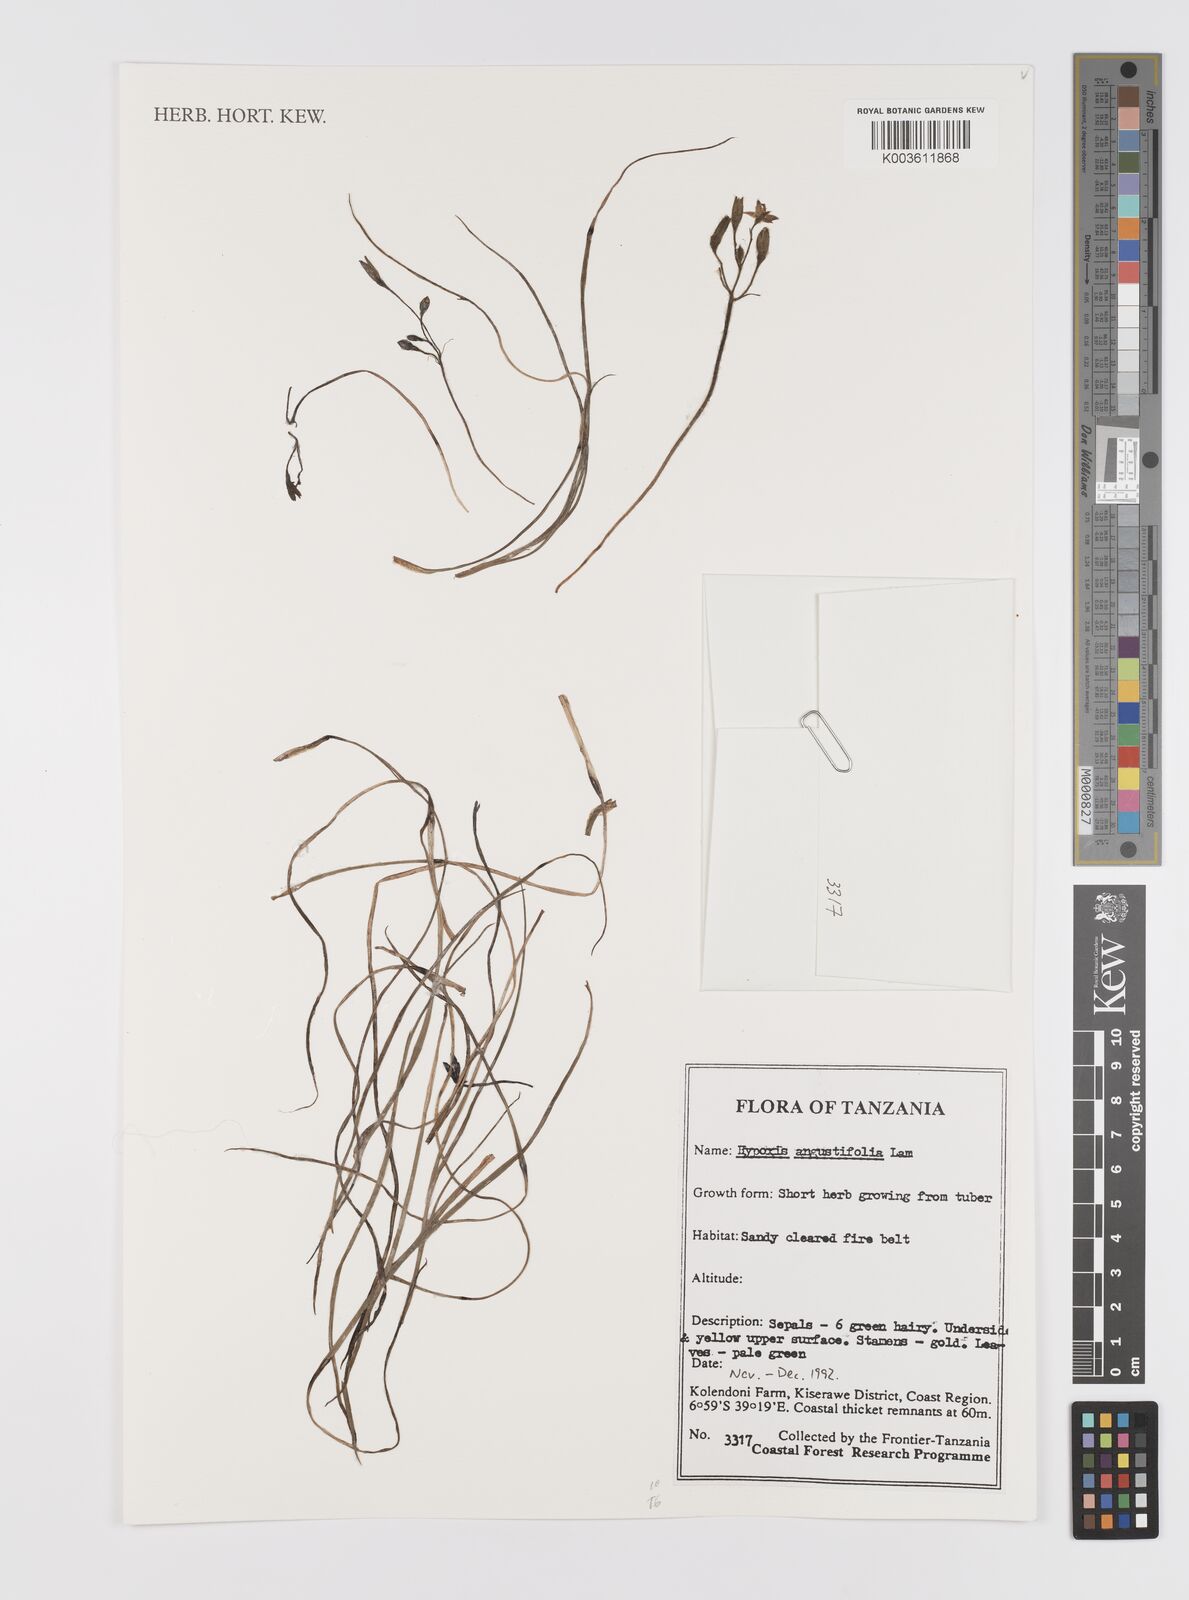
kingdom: Plantae
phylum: Tracheophyta
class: Liliopsida
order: Asparagales
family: Hypoxidaceae
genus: Hypoxis
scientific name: Hypoxis angustifolia
